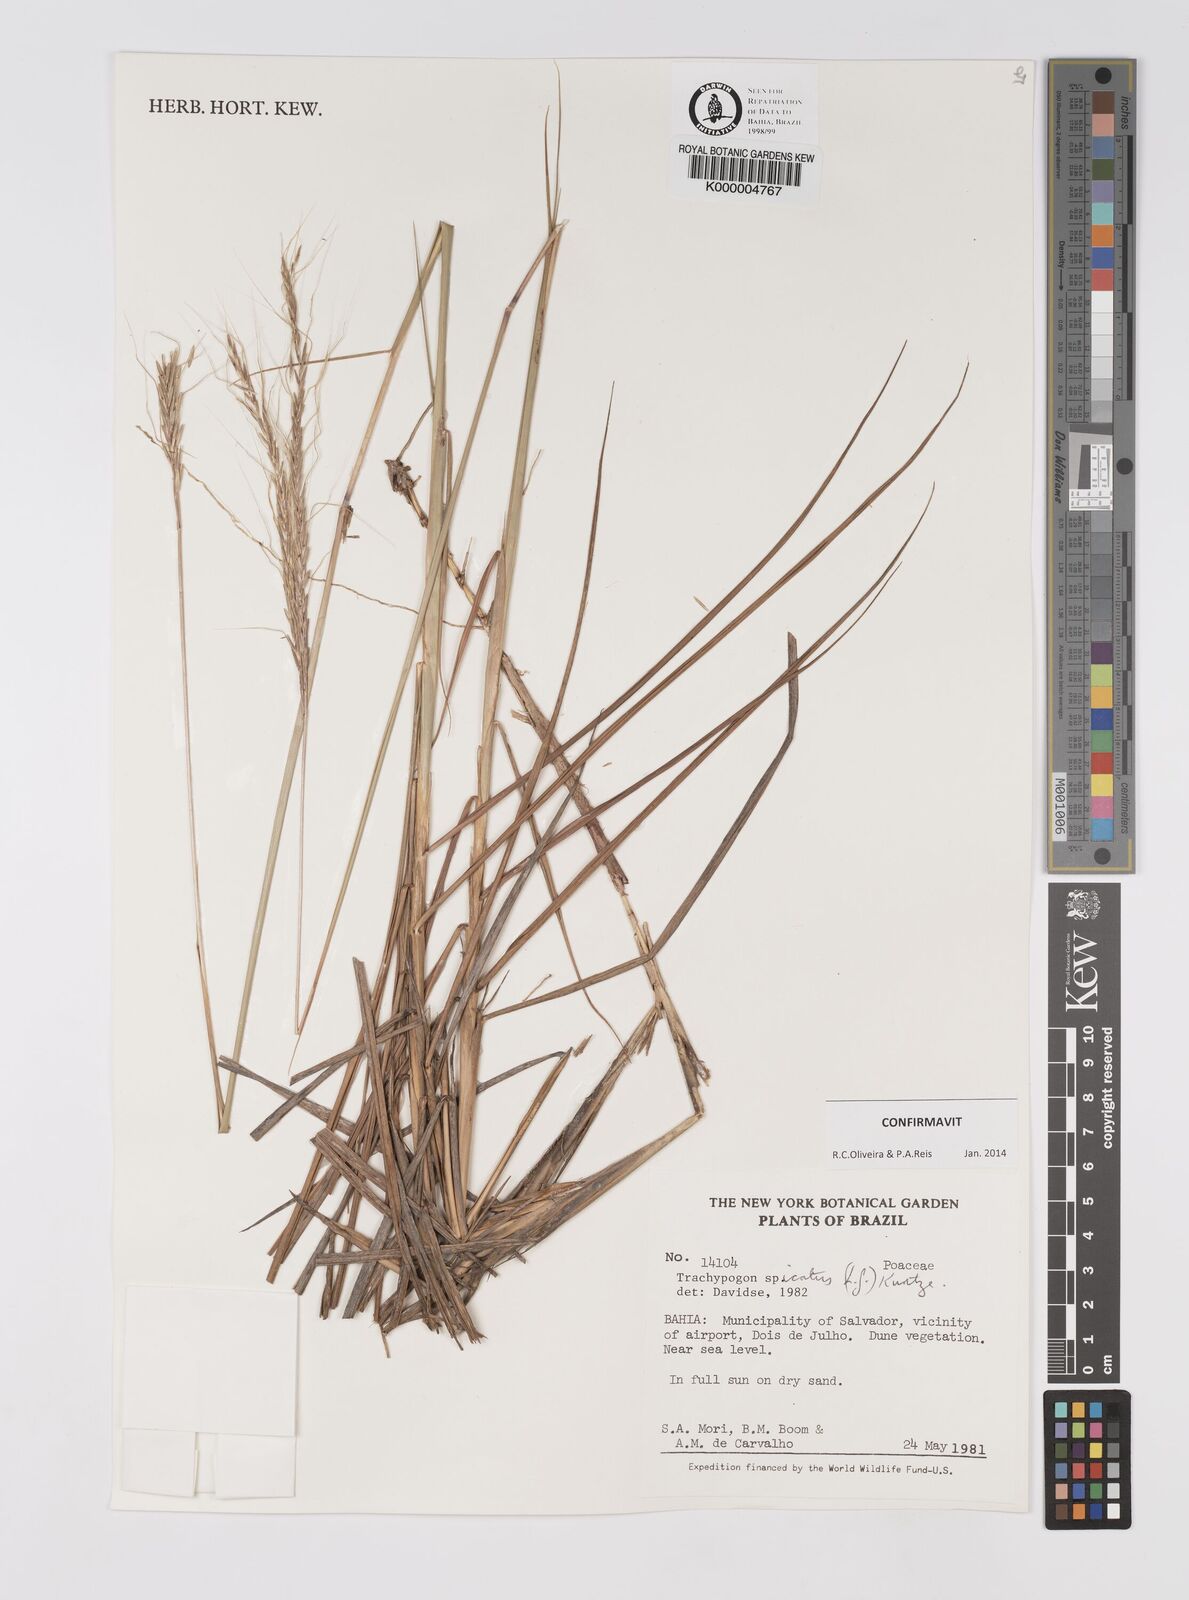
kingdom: Plantae
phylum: Tracheophyta
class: Liliopsida
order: Poales
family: Poaceae
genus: Trachypogon
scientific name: Trachypogon spicatus
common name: Crinkle-awn
